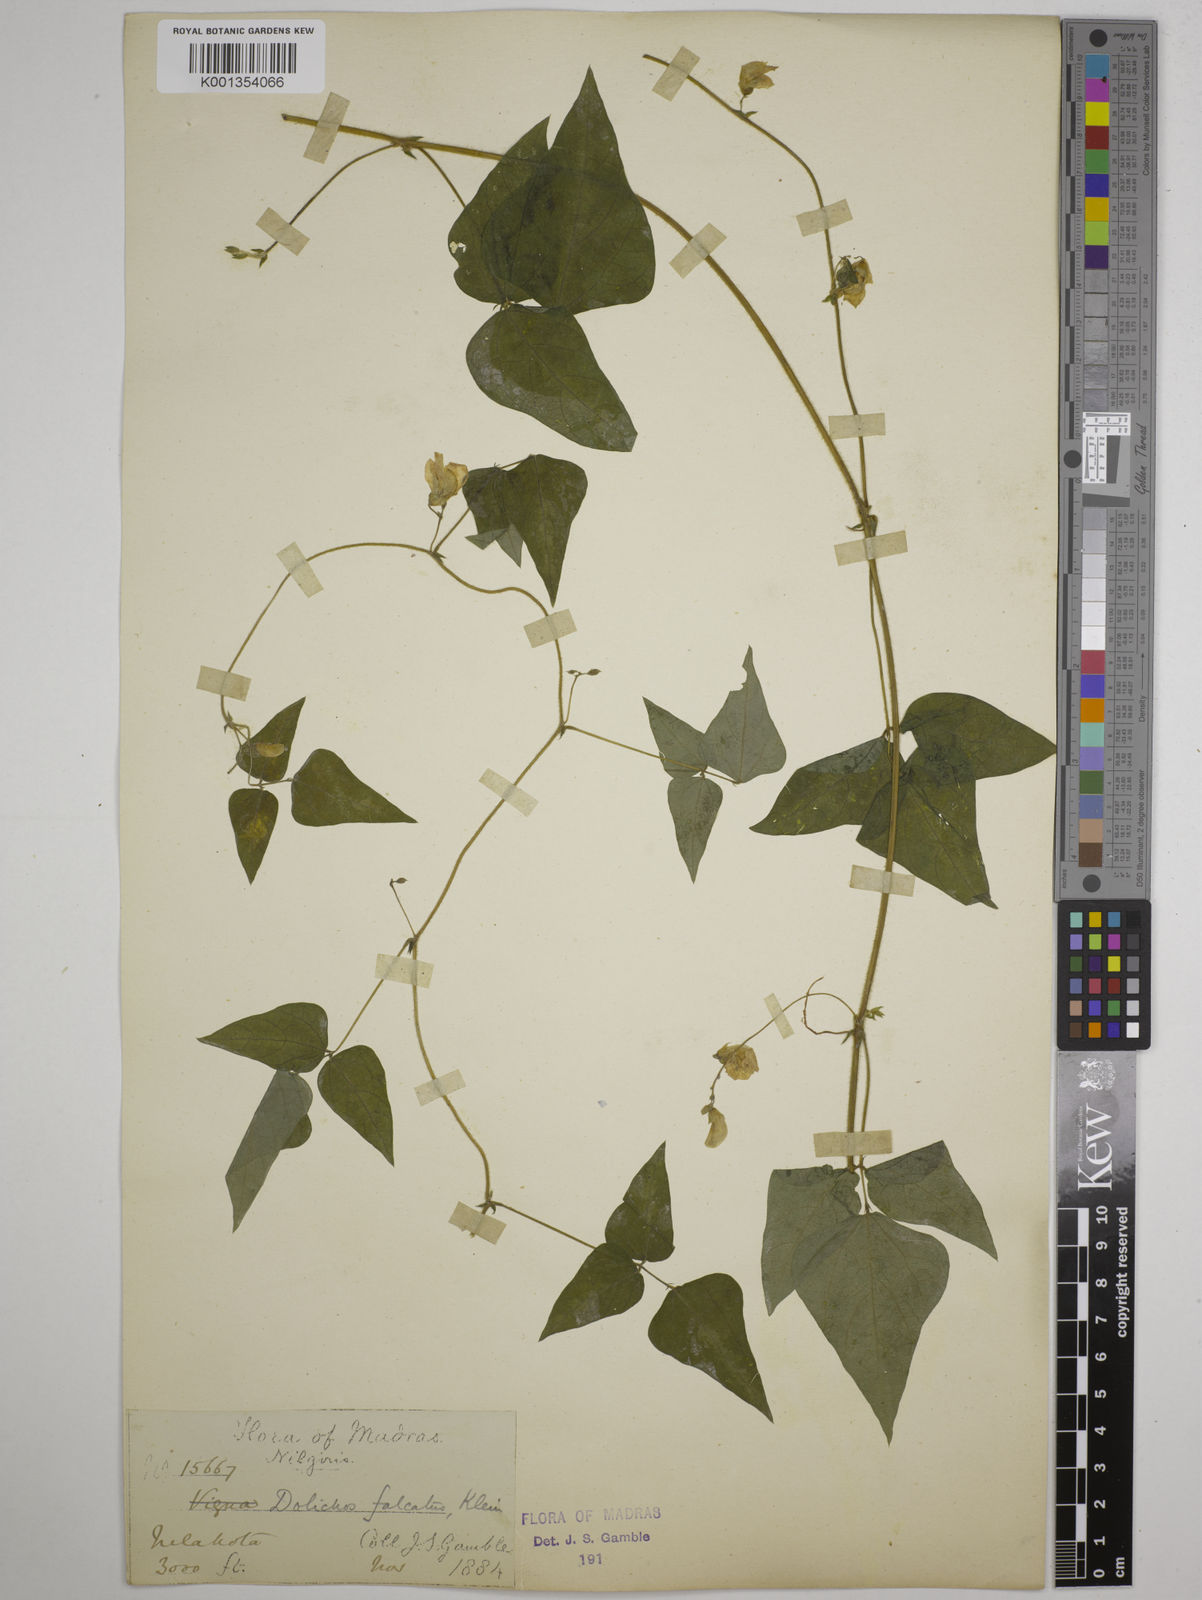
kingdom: Plantae
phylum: Tracheophyta
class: Magnoliopsida
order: Fabales
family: Fabaceae
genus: Dolichos
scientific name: Dolichos
